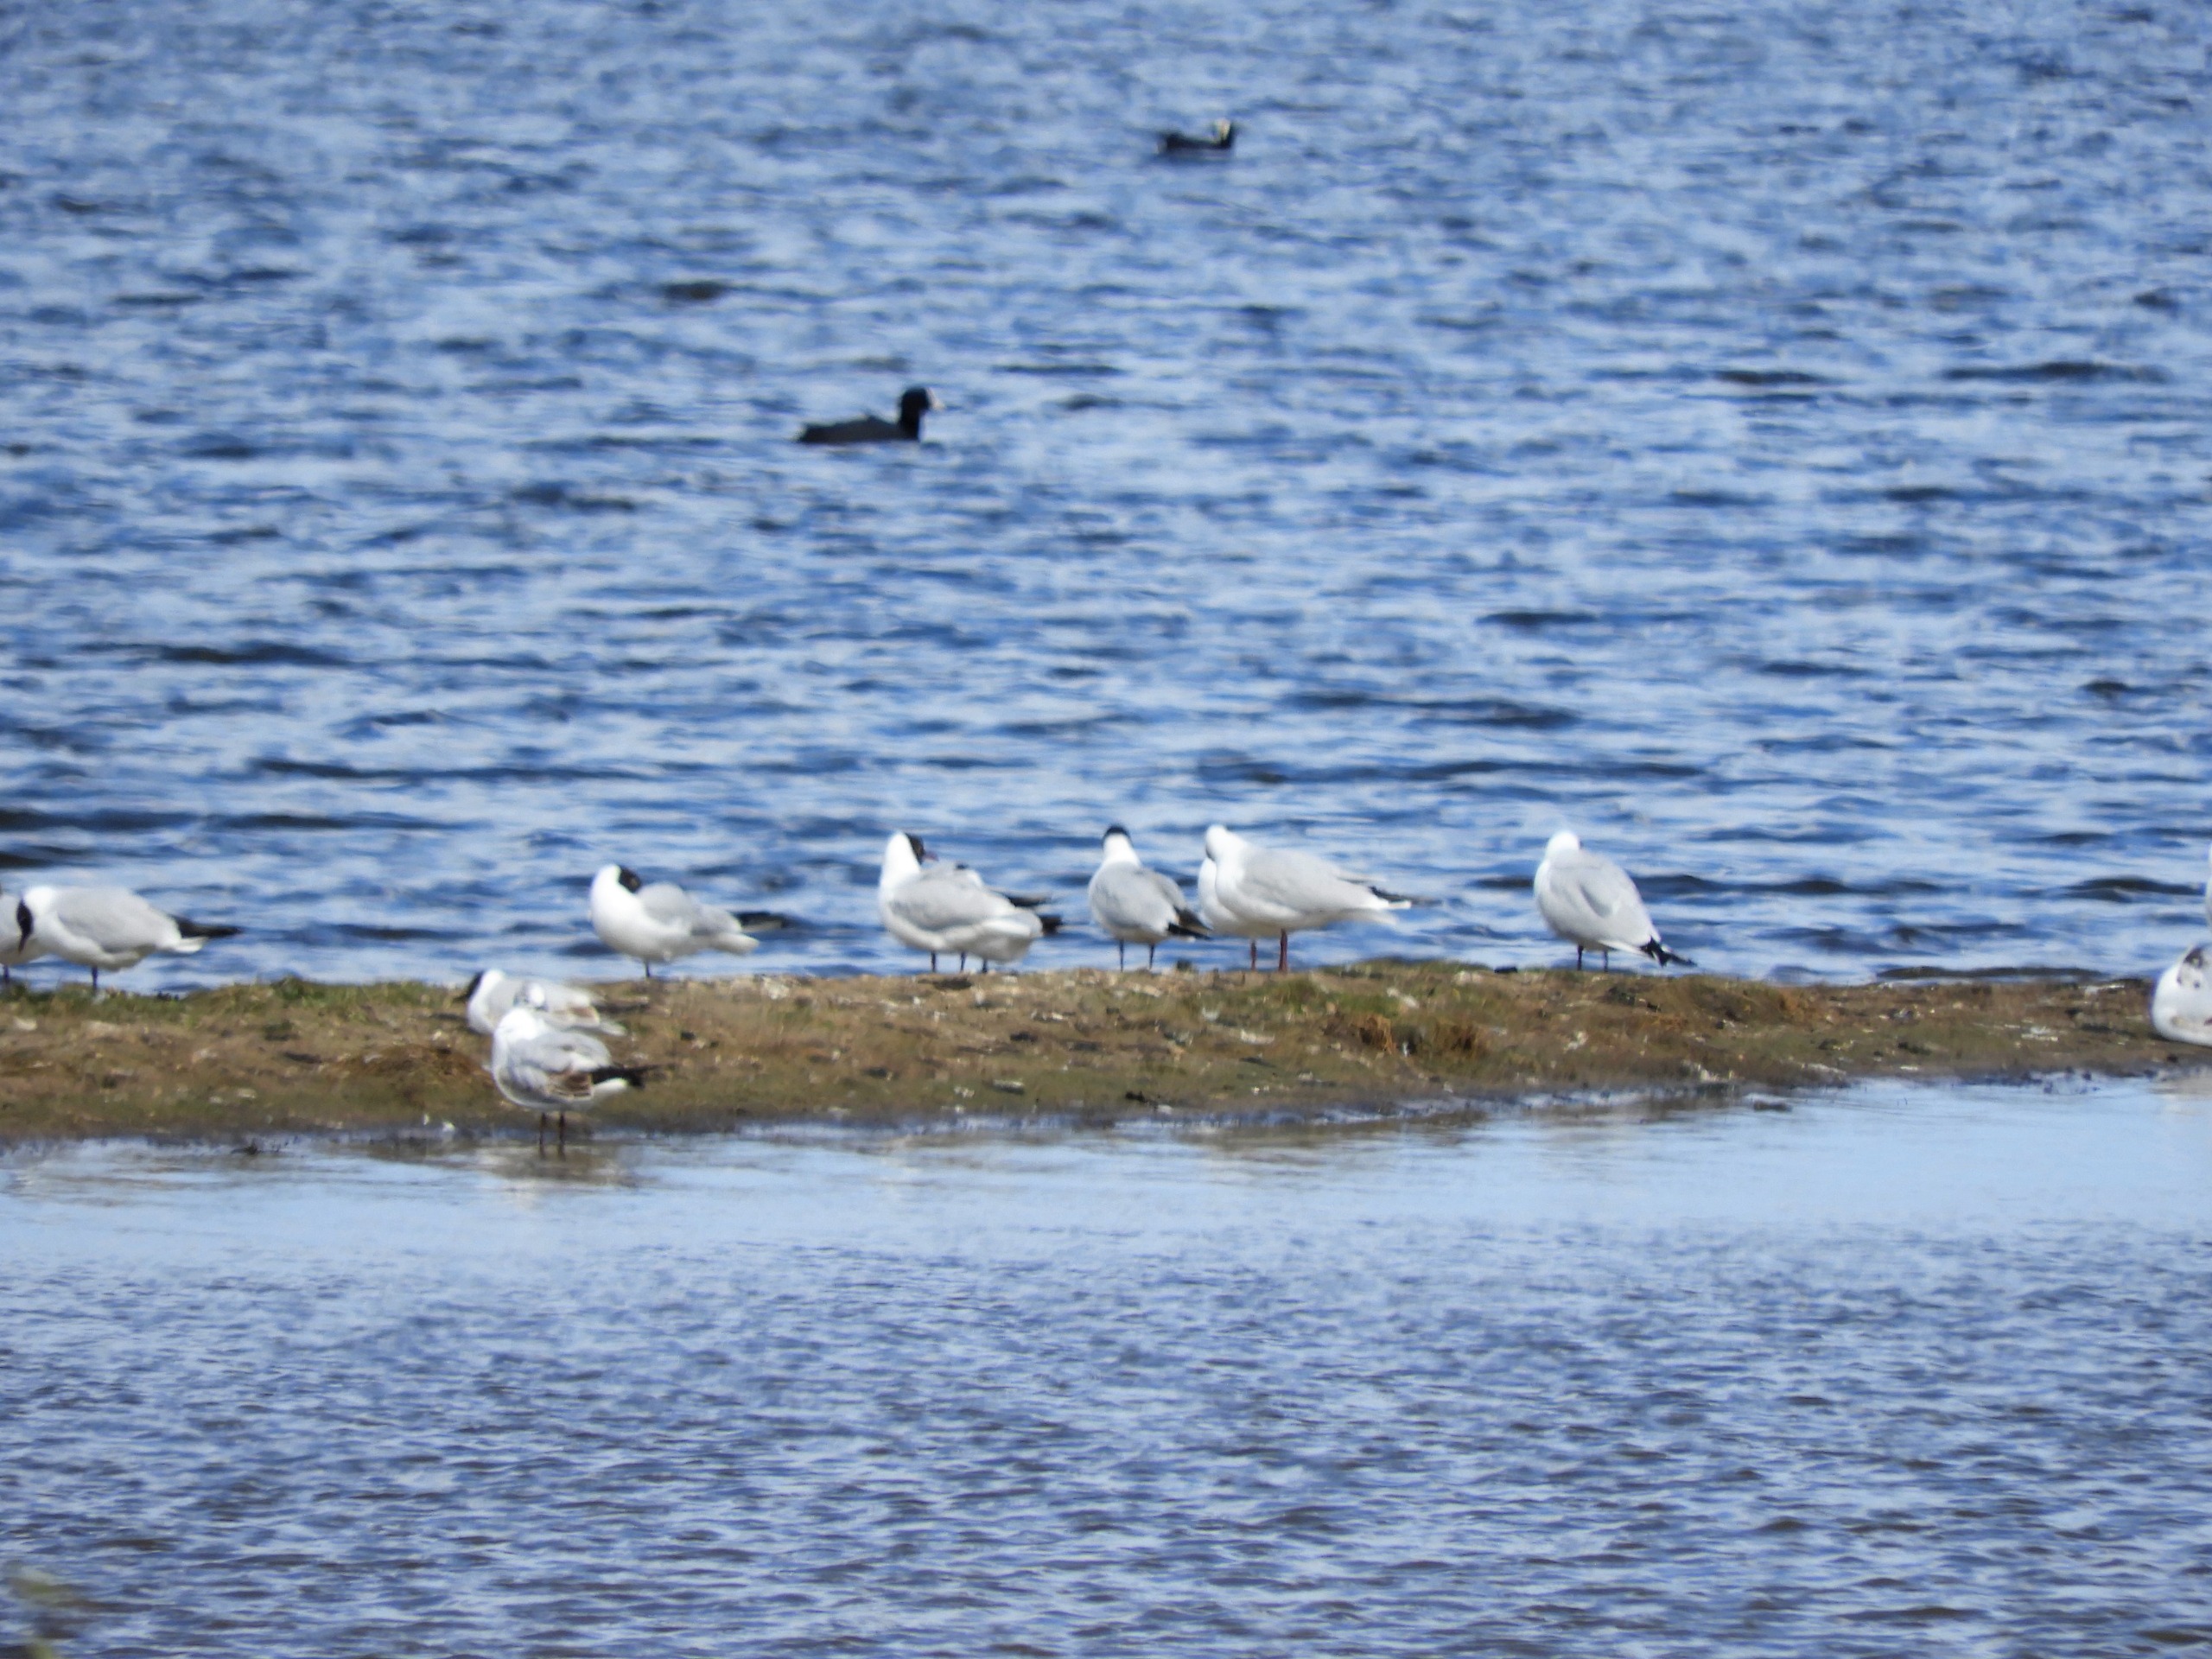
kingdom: Animalia
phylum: Chordata
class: Aves
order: Charadriiformes
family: Laridae
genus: Chroicocephalus
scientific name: Chroicocephalus ridibundus
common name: Hættemåge
